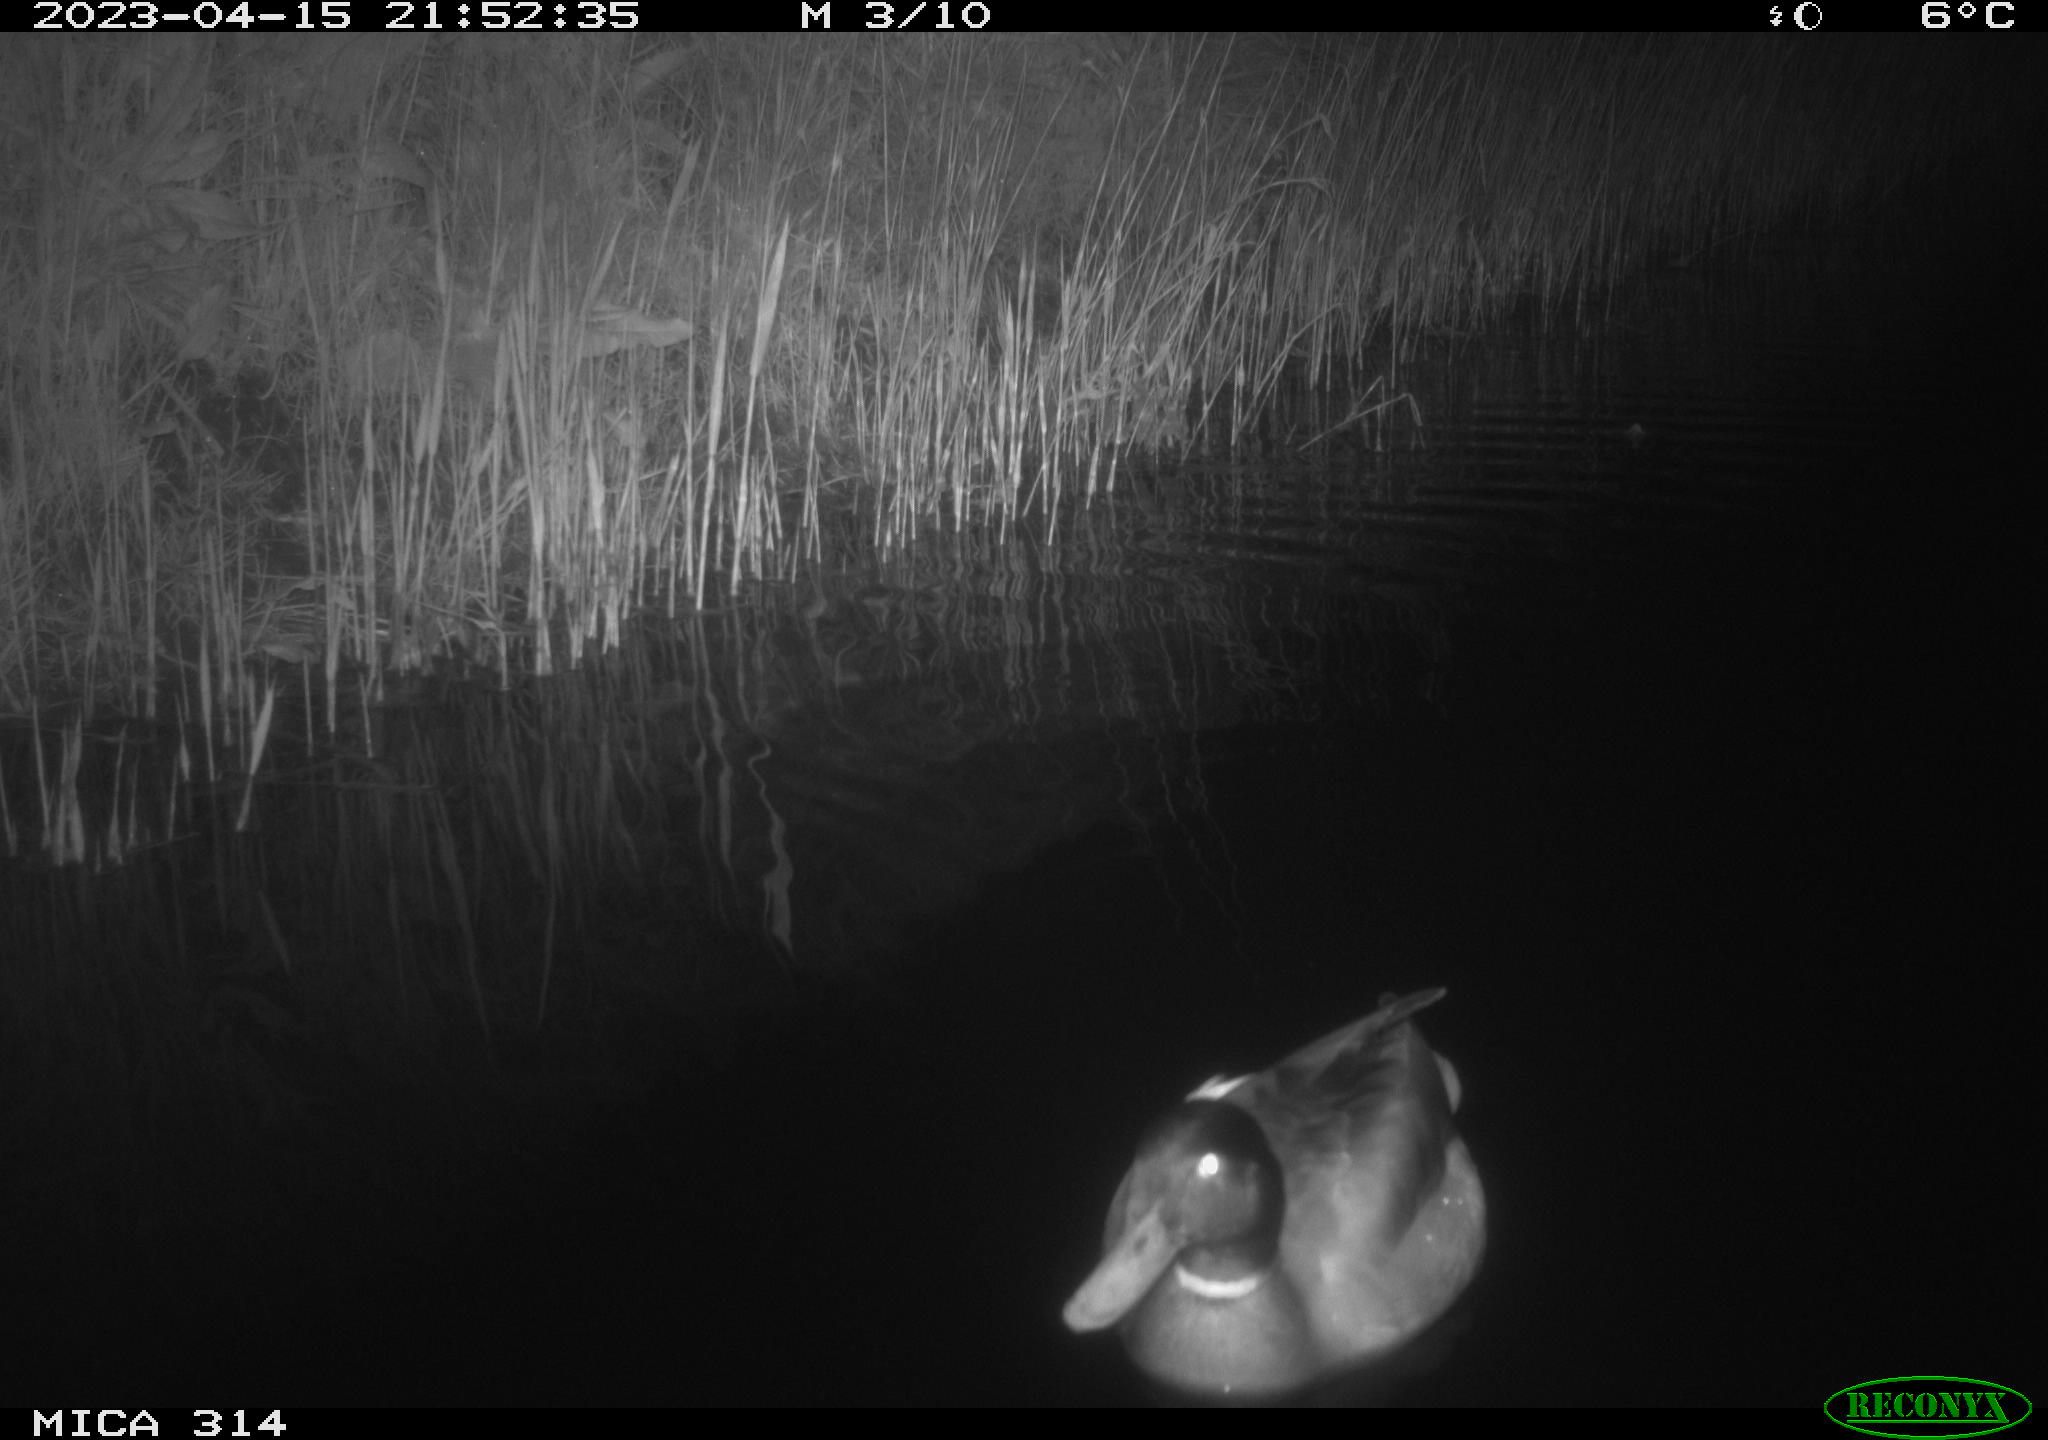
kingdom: Animalia
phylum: Chordata
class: Aves
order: Anseriformes
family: Anatidae
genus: Anas
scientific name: Anas
